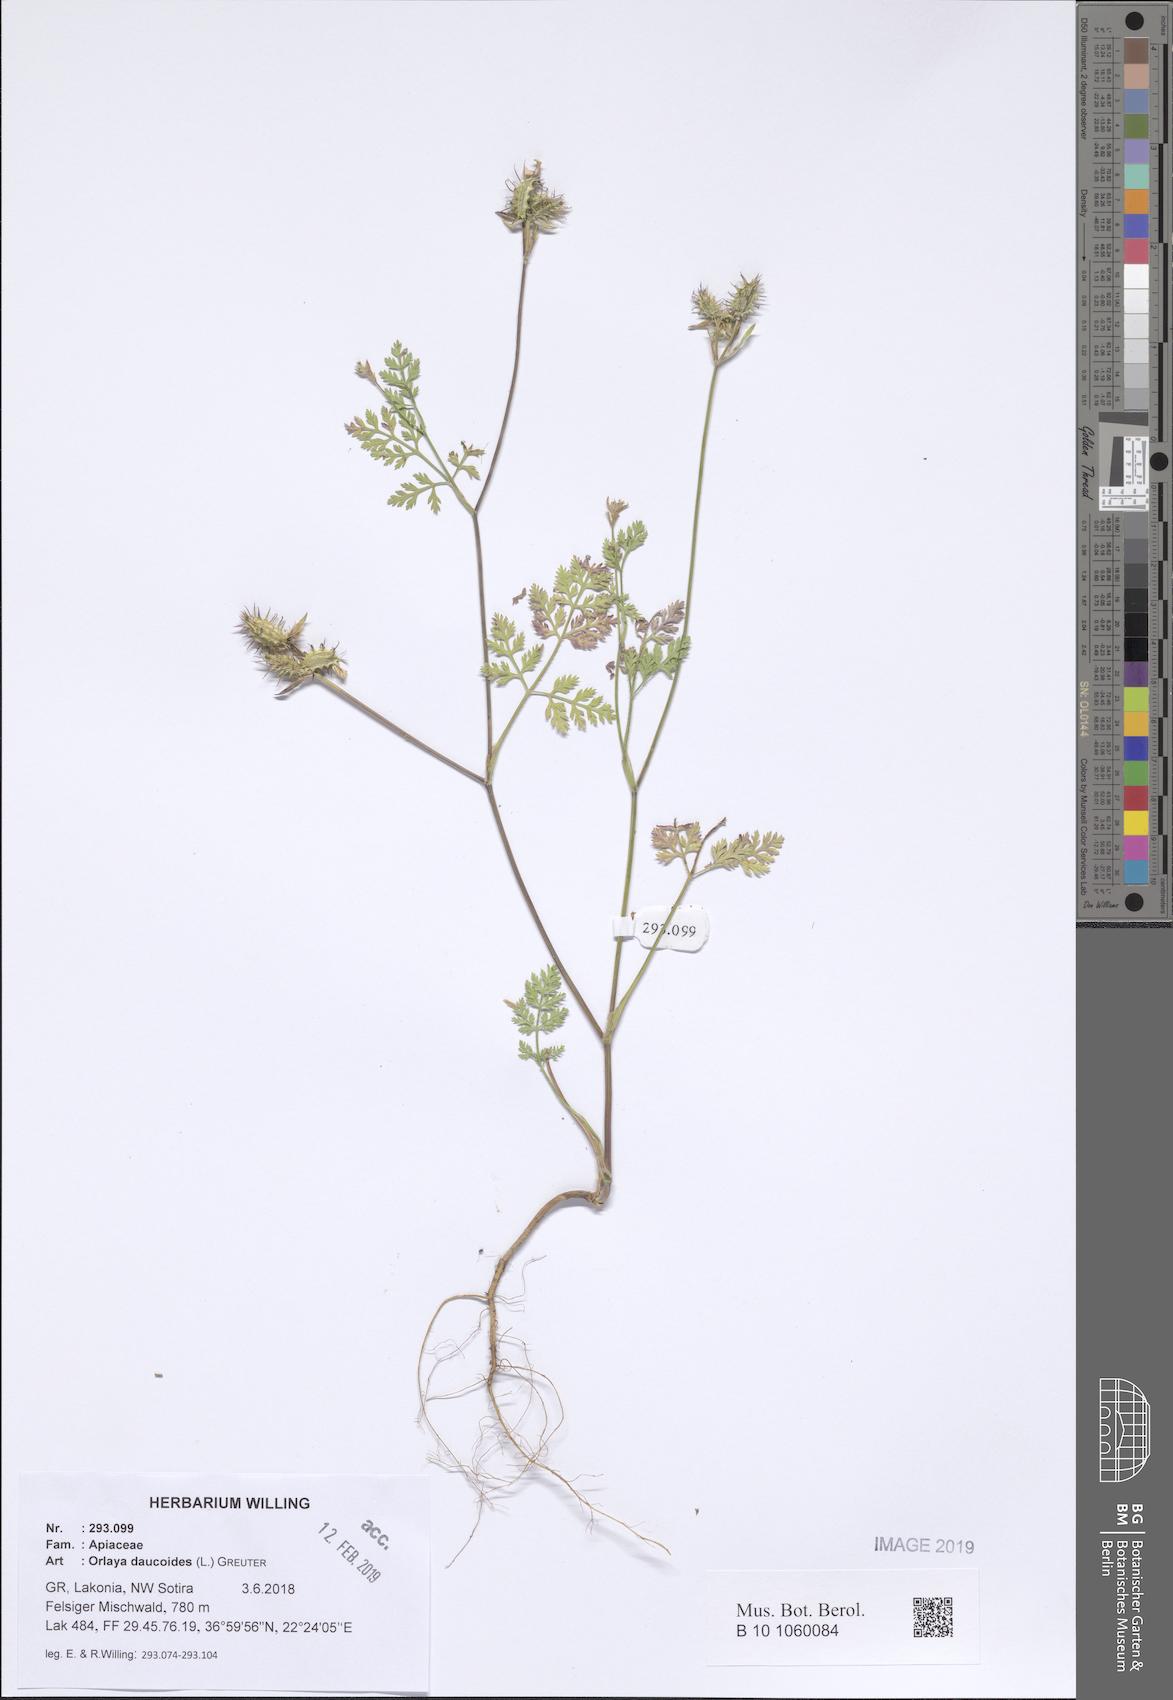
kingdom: Plantae
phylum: Tracheophyta
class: Magnoliopsida
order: Apiales
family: Apiaceae
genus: Orlaya
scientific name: Orlaya daucoides
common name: Flat-fruit orlaya
